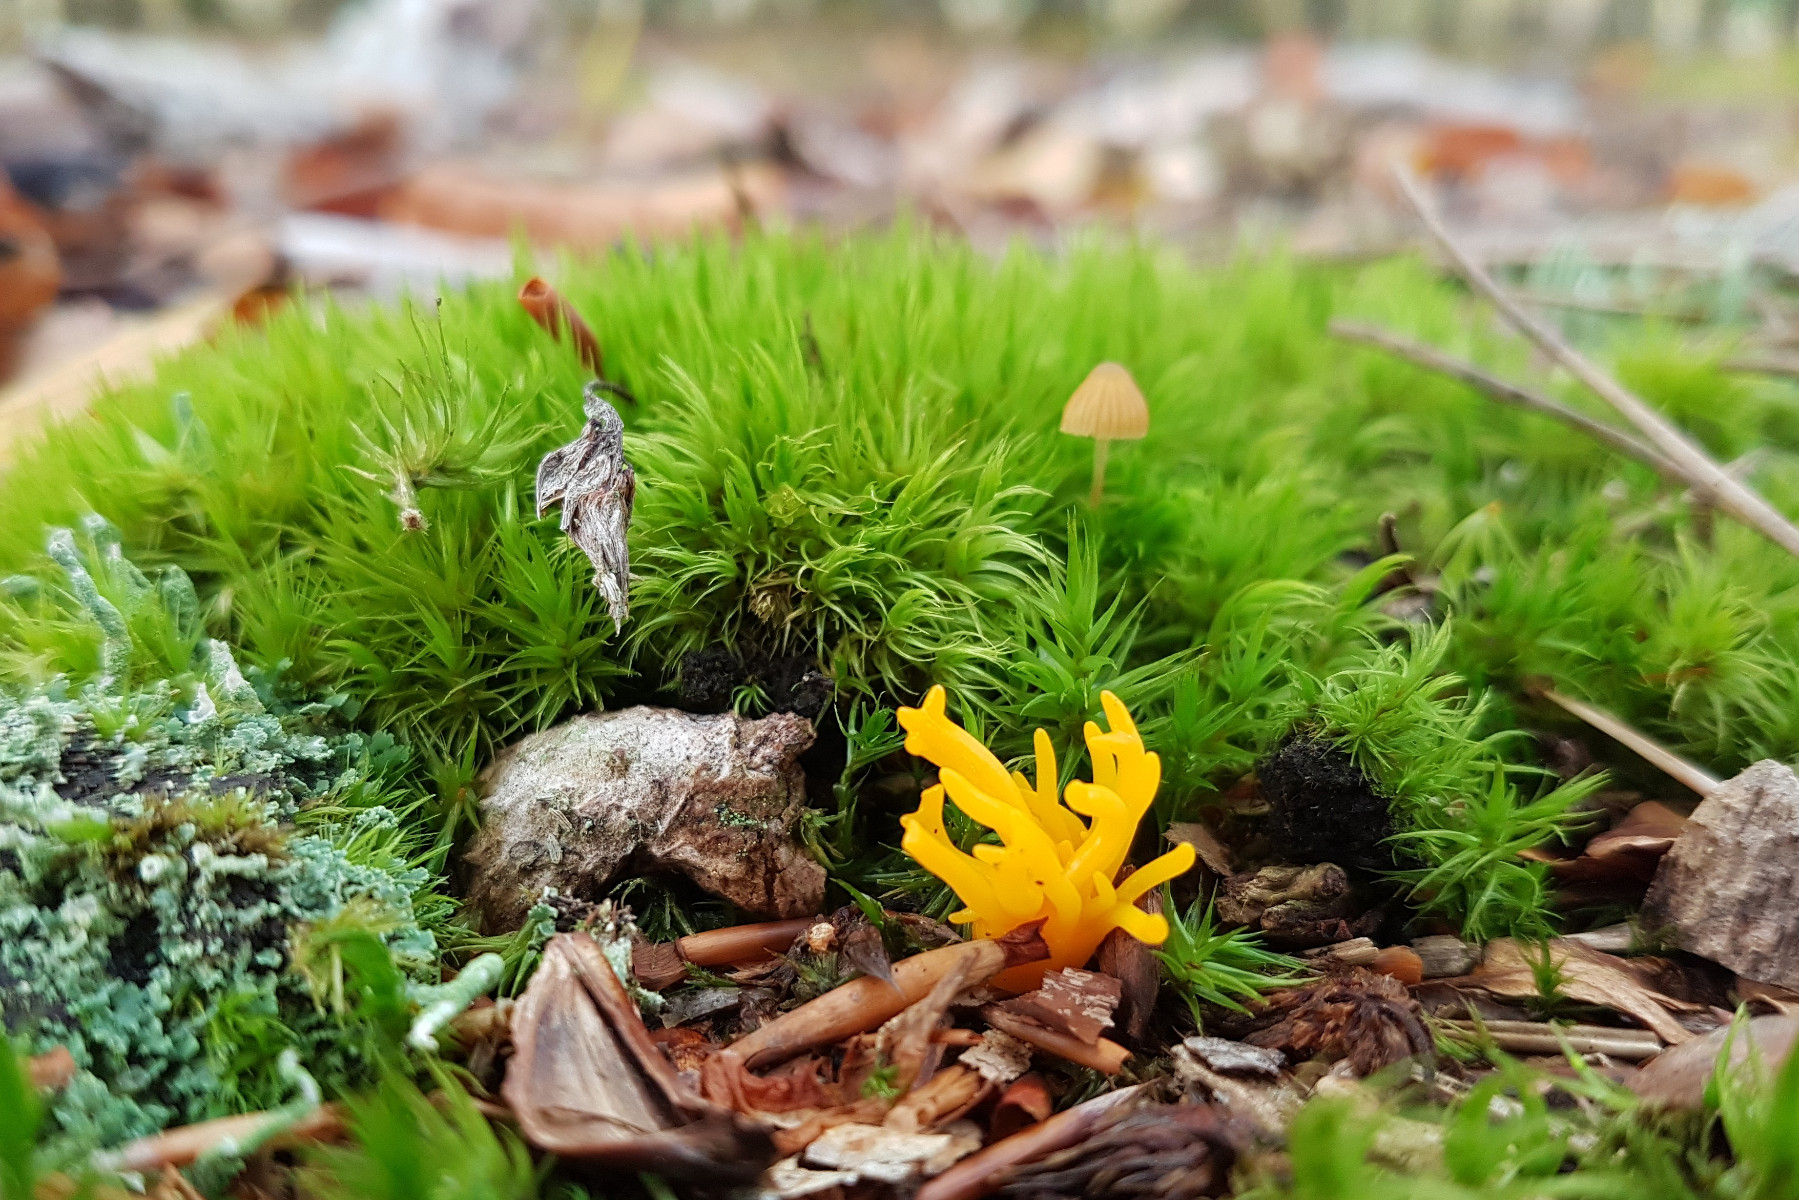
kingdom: Fungi
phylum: Basidiomycota
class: Dacrymycetes
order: Dacrymycetales
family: Dacrymycetaceae
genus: Calocera
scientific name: Calocera furcata
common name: fyrre-guldgaffel
